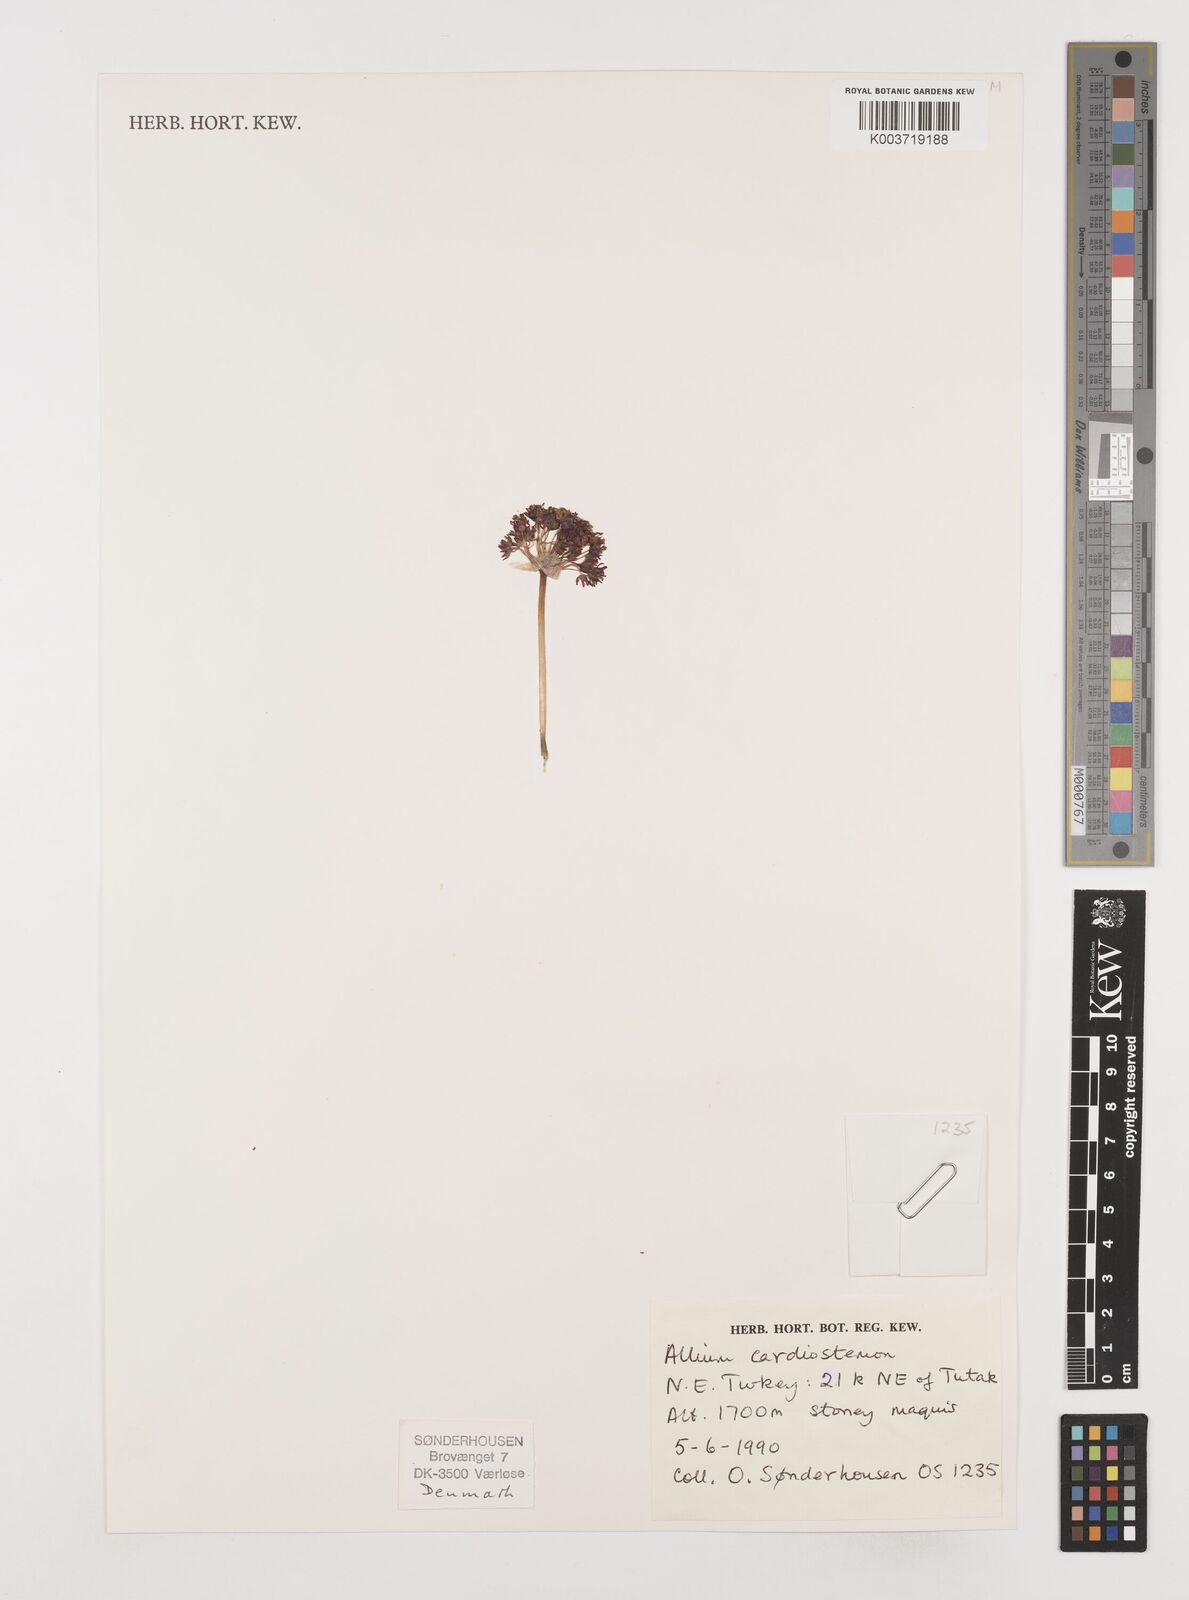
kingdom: Plantae
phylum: Tracheophyta
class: Liliopsida
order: Asparagales
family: Amaryllidaceae
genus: Allium
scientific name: Allium cardiostemon
